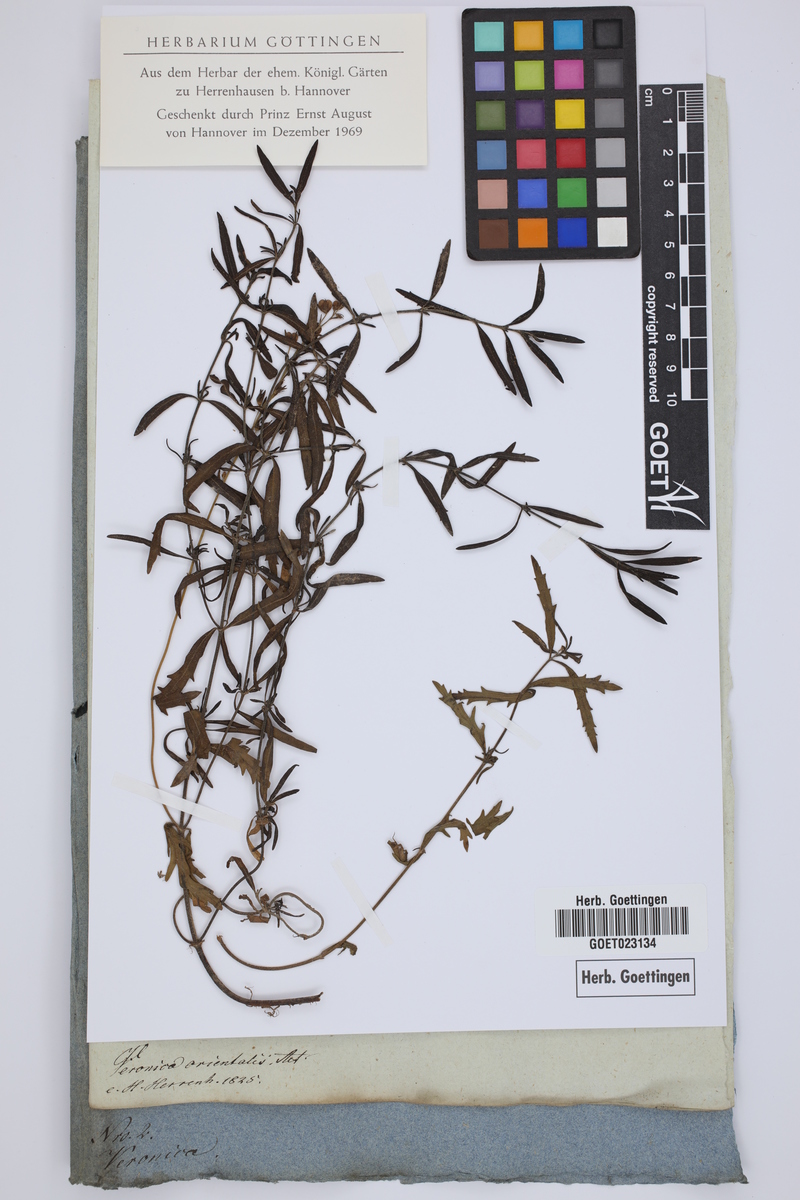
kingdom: Plantae
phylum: Tracheophyta
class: Magnoliopsida
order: Lamiales
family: Plantaginaceae
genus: Veronica
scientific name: Veronica orientalis
